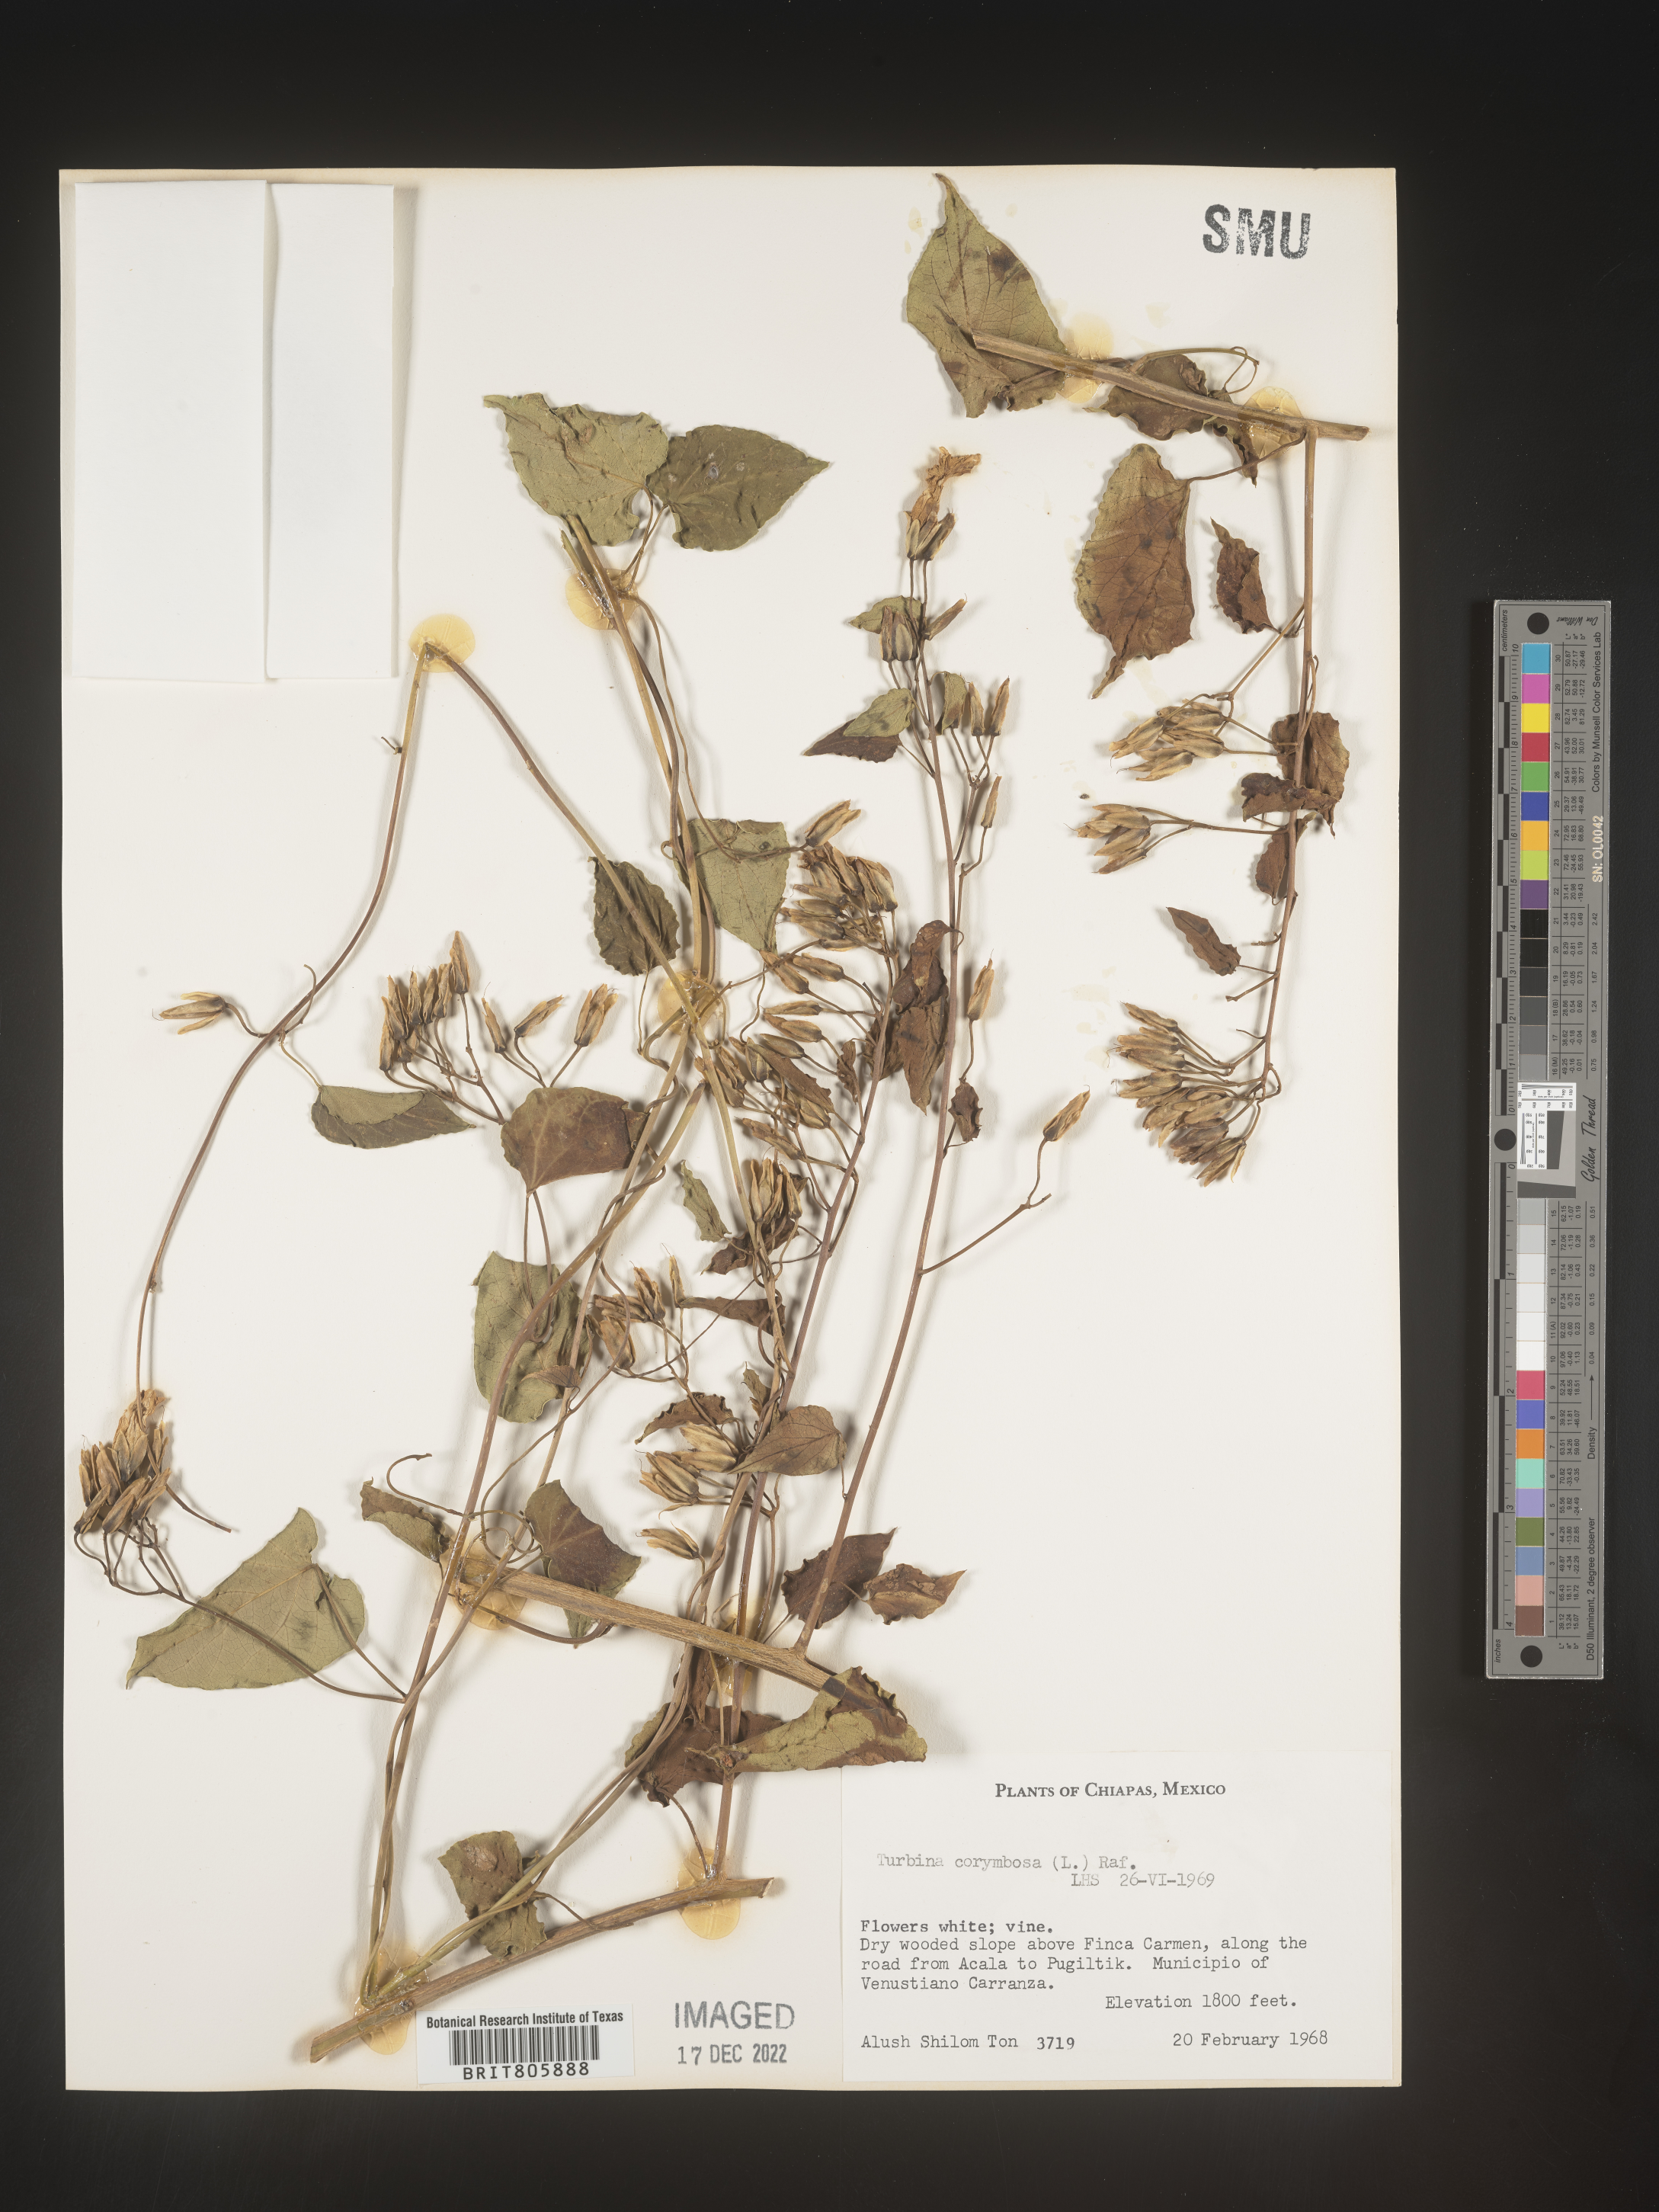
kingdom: Animalia
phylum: Mollusca
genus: Turbina
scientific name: Turbina
